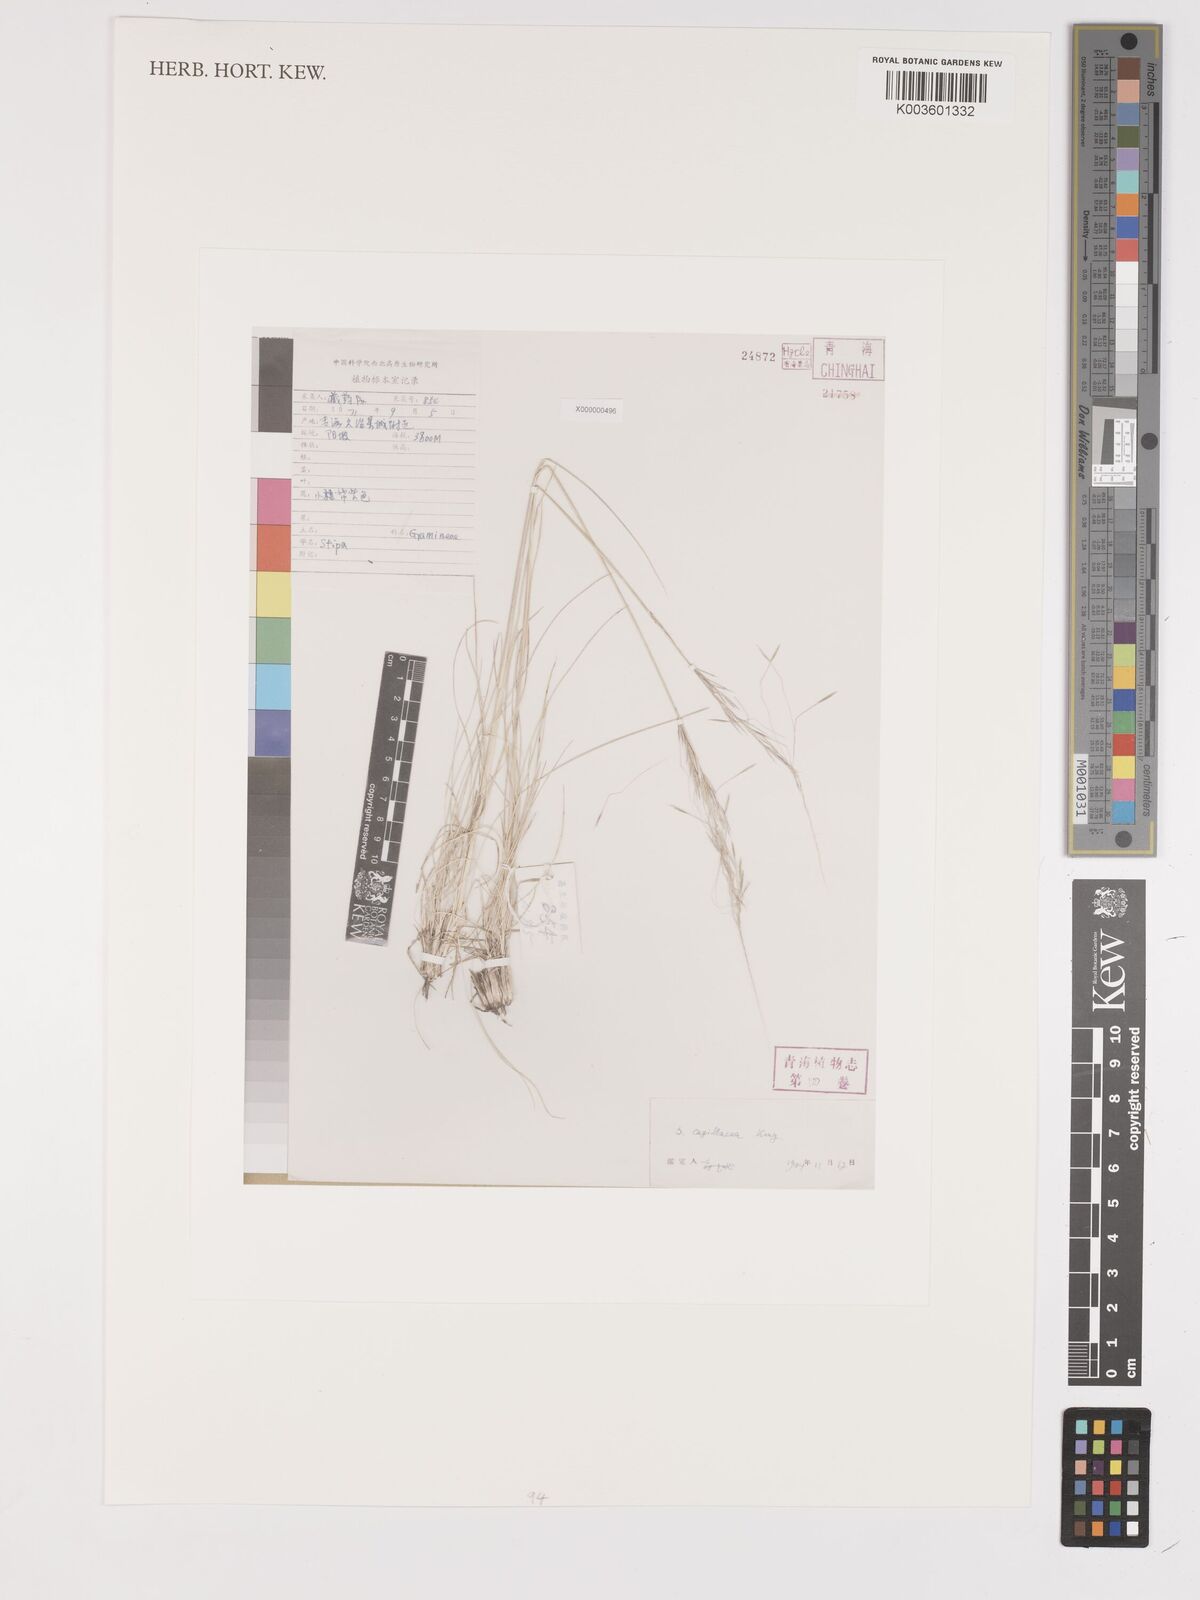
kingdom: Plantae
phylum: Tracheophyta
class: Liliopsida
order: Poales
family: Poaceae
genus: Stipa
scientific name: Stipa capillacea
